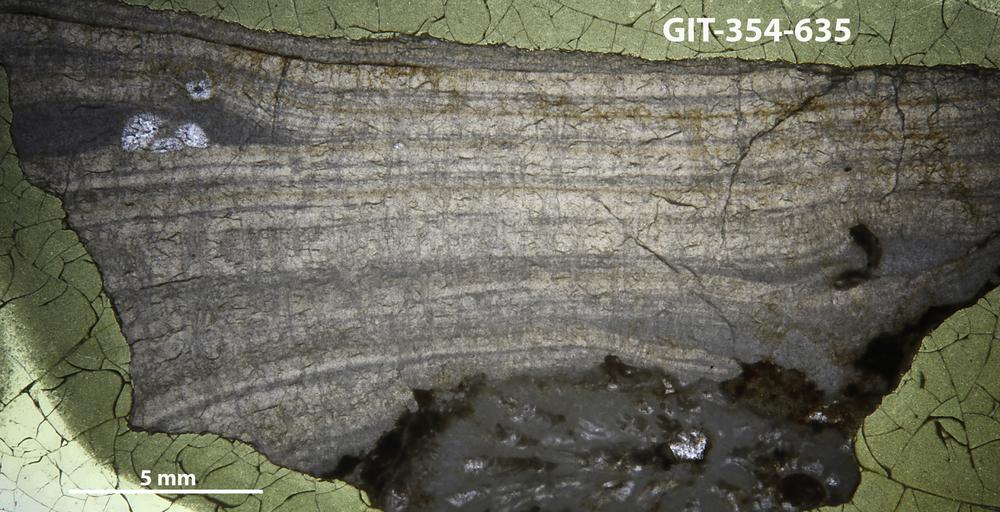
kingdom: Animalia
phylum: Porifera
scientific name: Porifera
